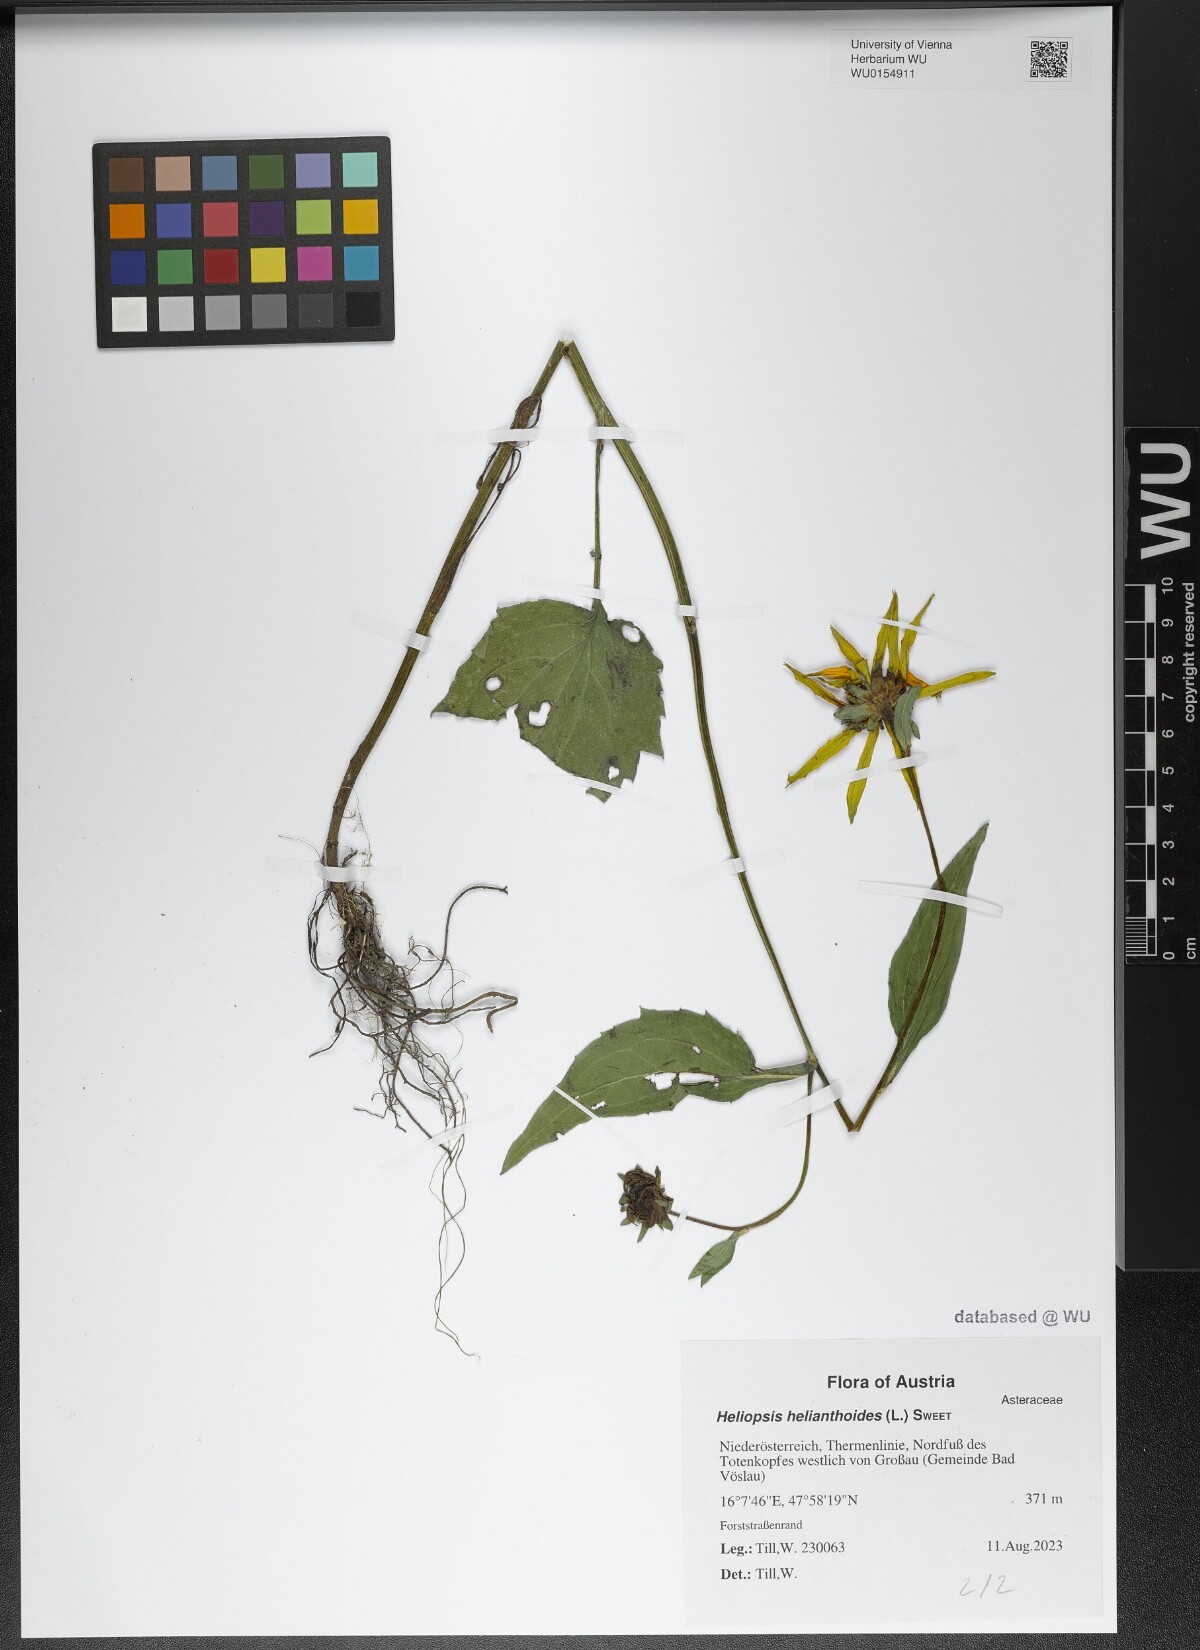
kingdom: Plantae
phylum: Tracheophyta
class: Magnoliopsida
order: Asterales
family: Asteraceae
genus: Heliopsis
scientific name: Heliopsis helianthoides
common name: False sunflower
